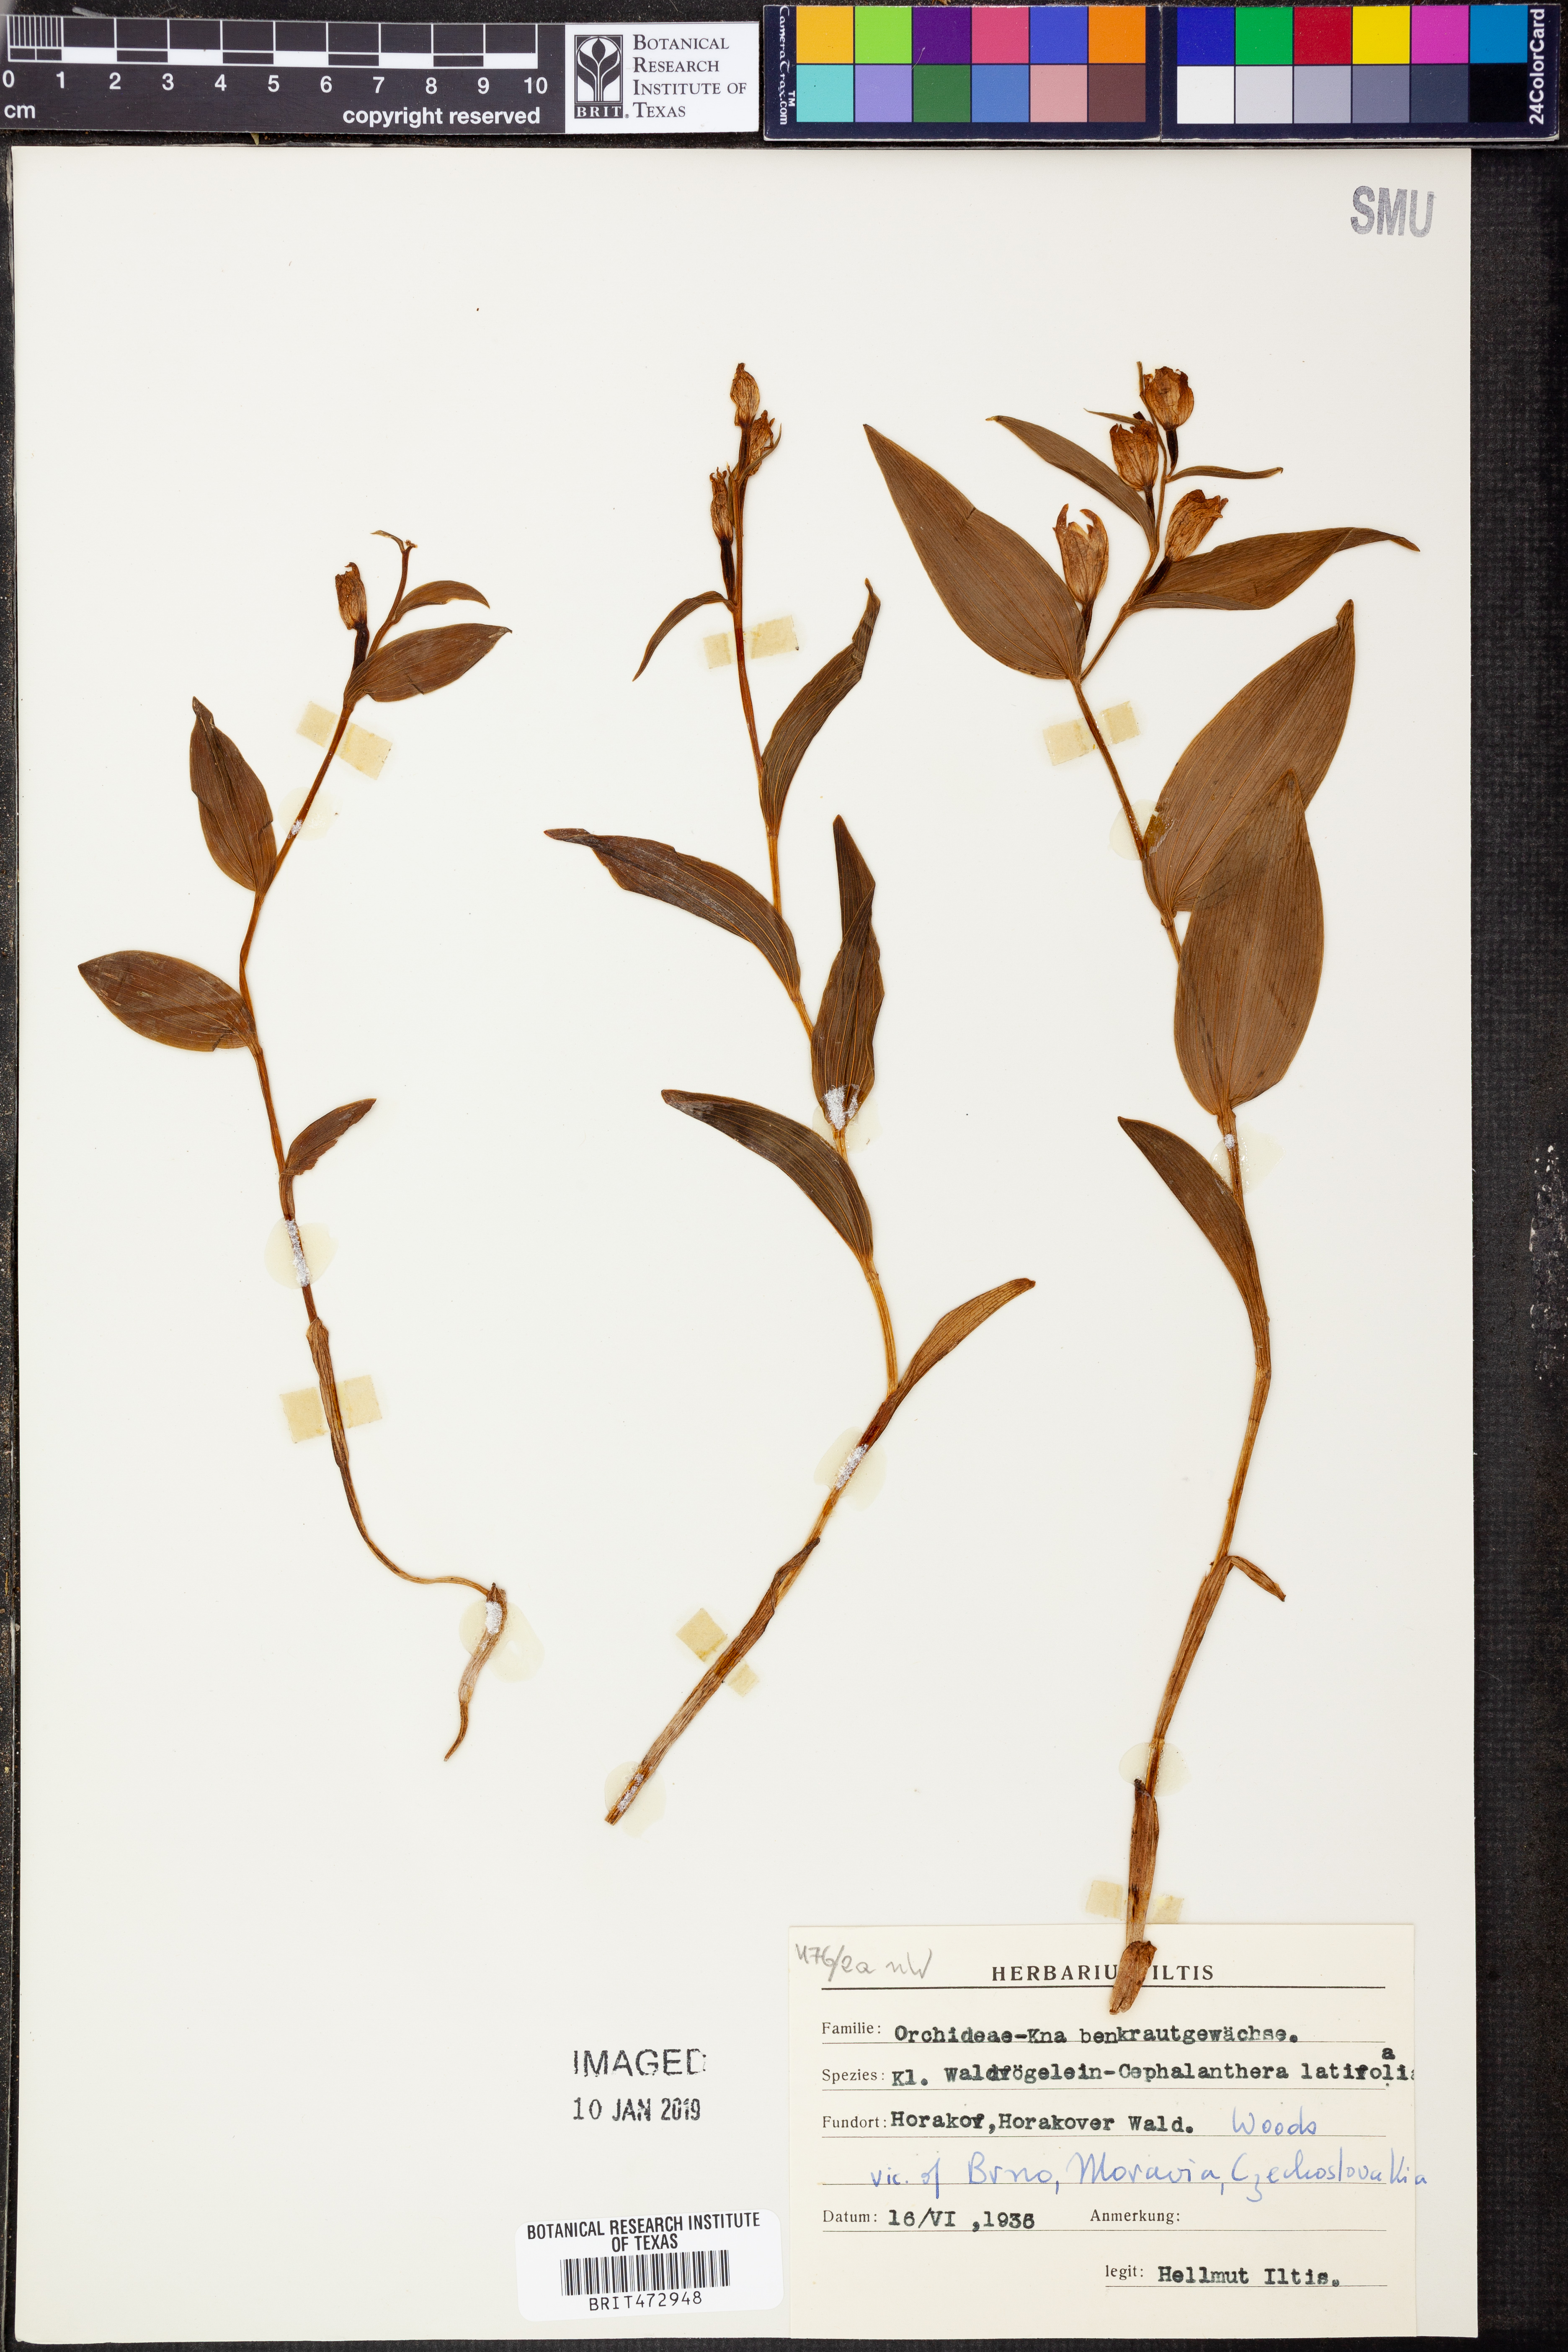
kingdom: Plantae
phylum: Tracheophyta
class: Liliopsida
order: Asparagales
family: Orchidaceae
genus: Cephalanthera
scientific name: Cephalanthera damasonium
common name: White helleborine
